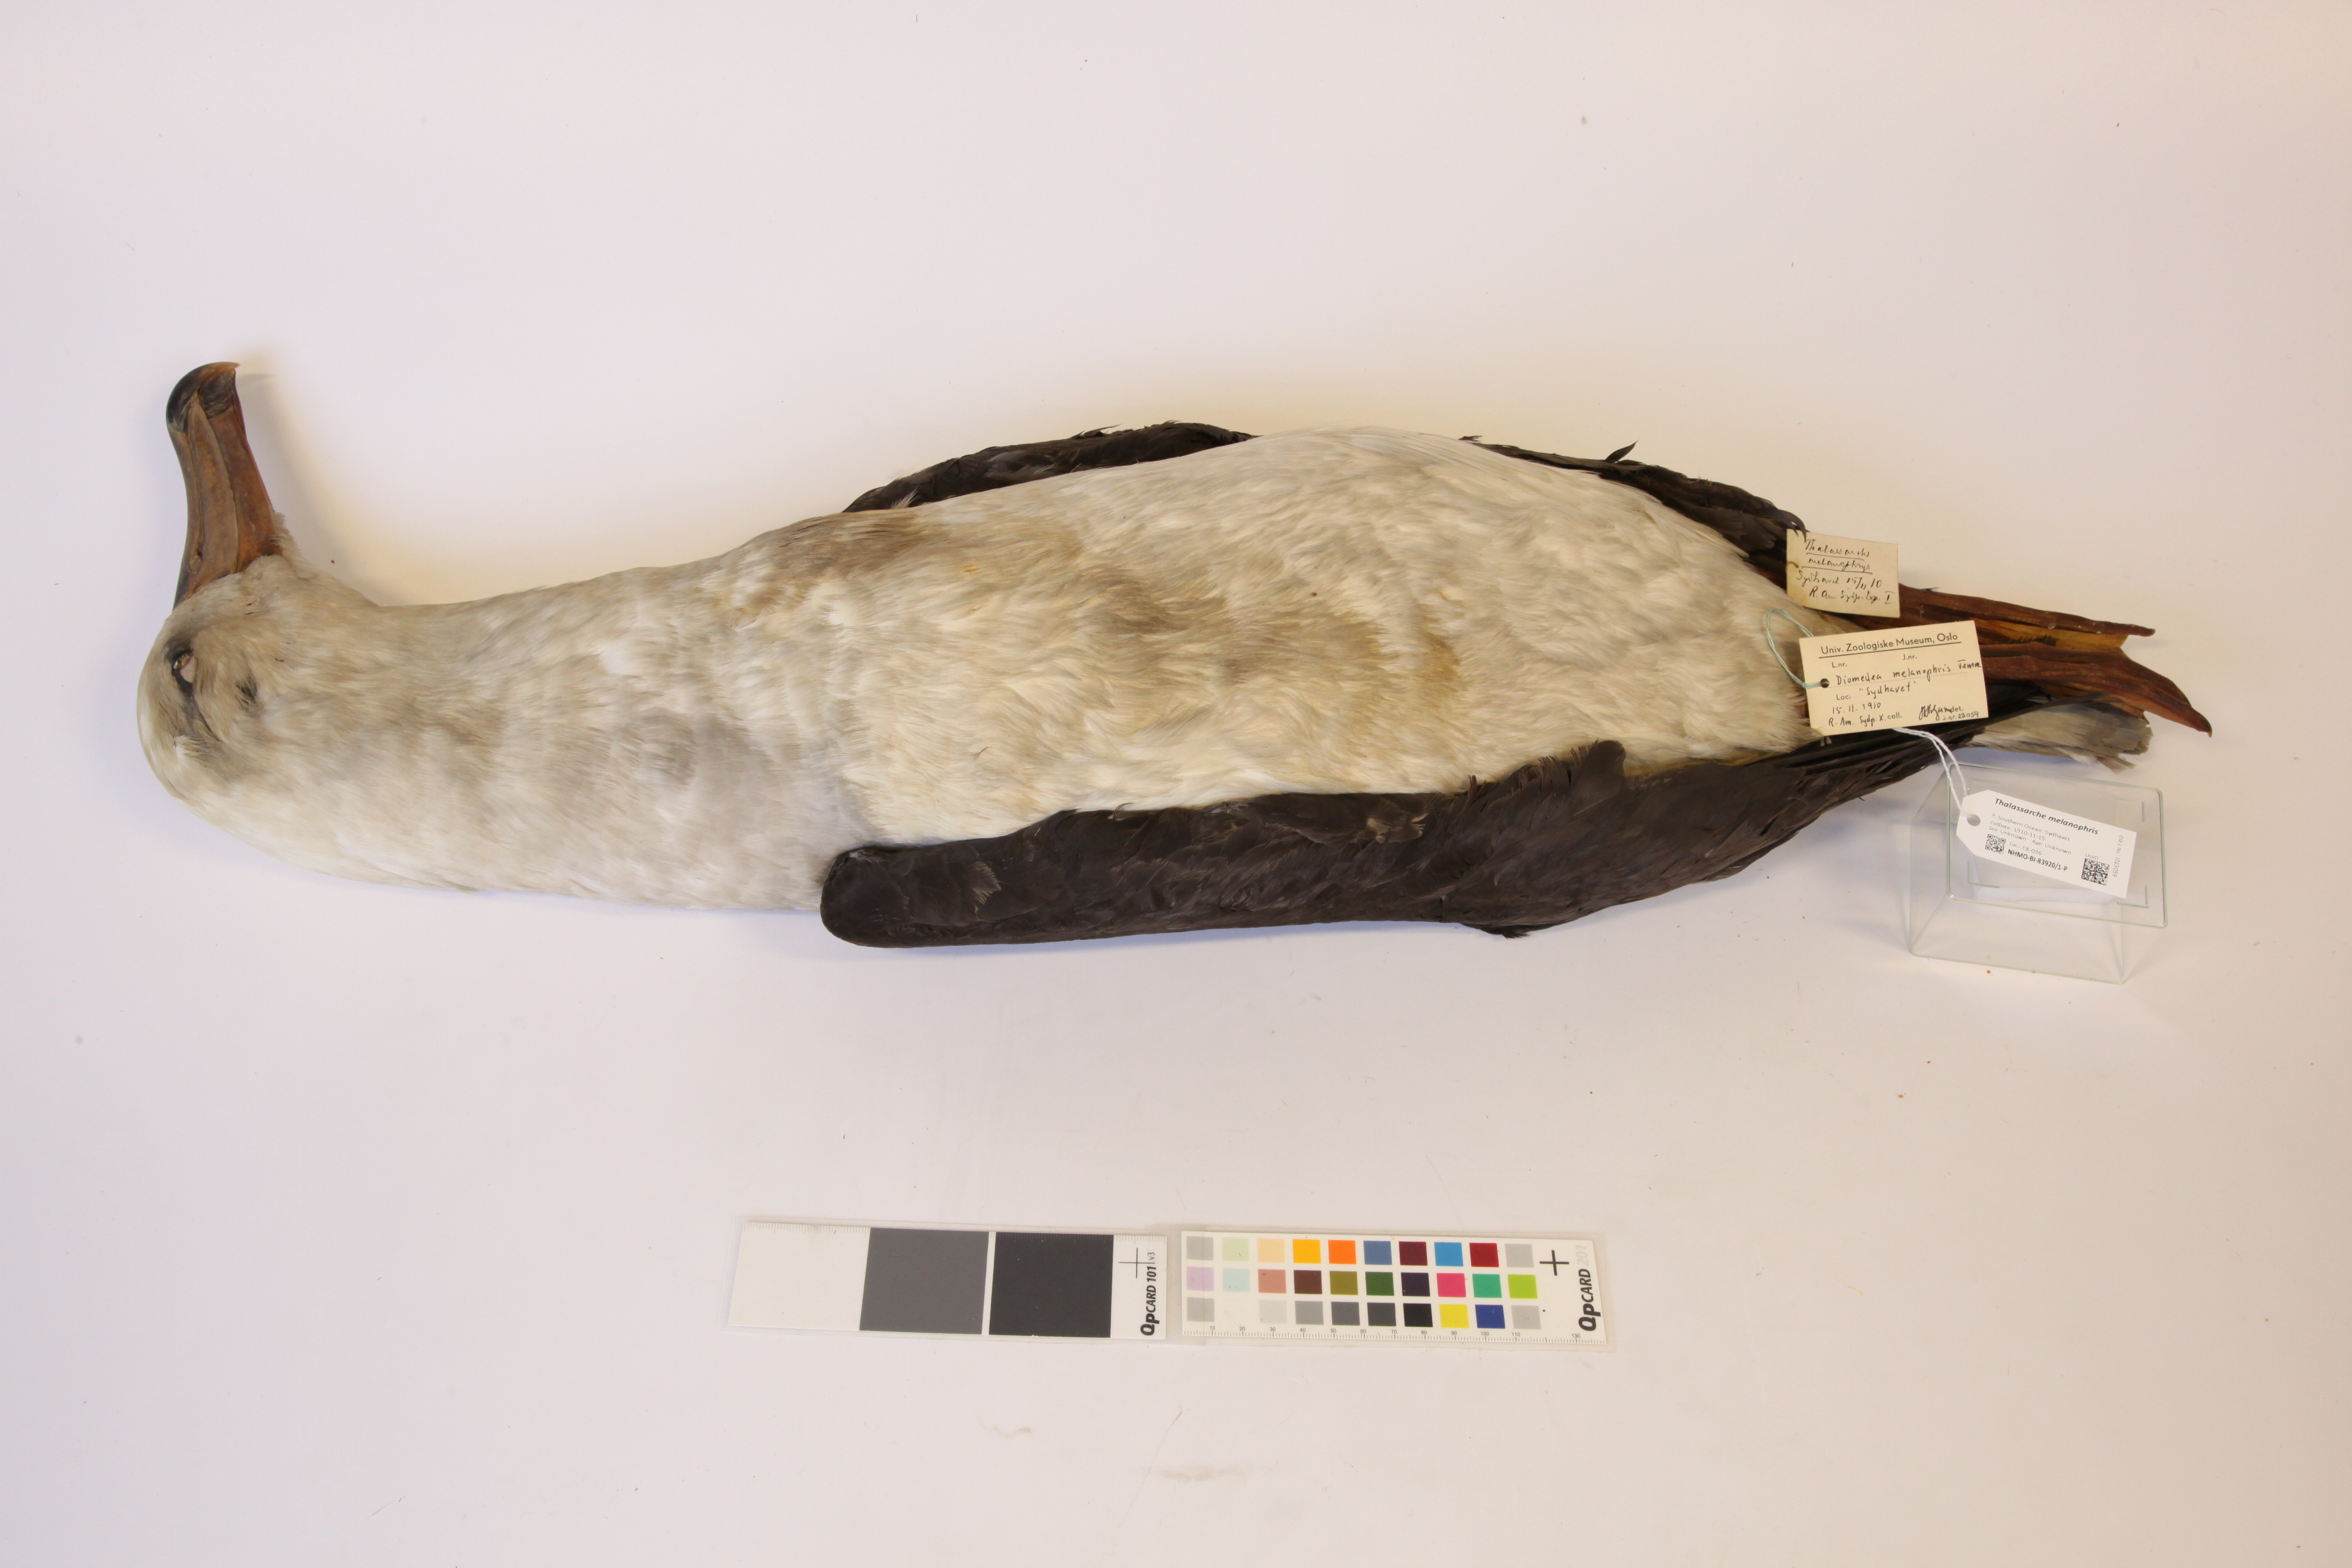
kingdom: Animalia
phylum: Chordata
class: Aves
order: Procellariiformes
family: Diomedeidae
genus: Thalassarche
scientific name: Thalassarche melanophris
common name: Black-browed albatross
